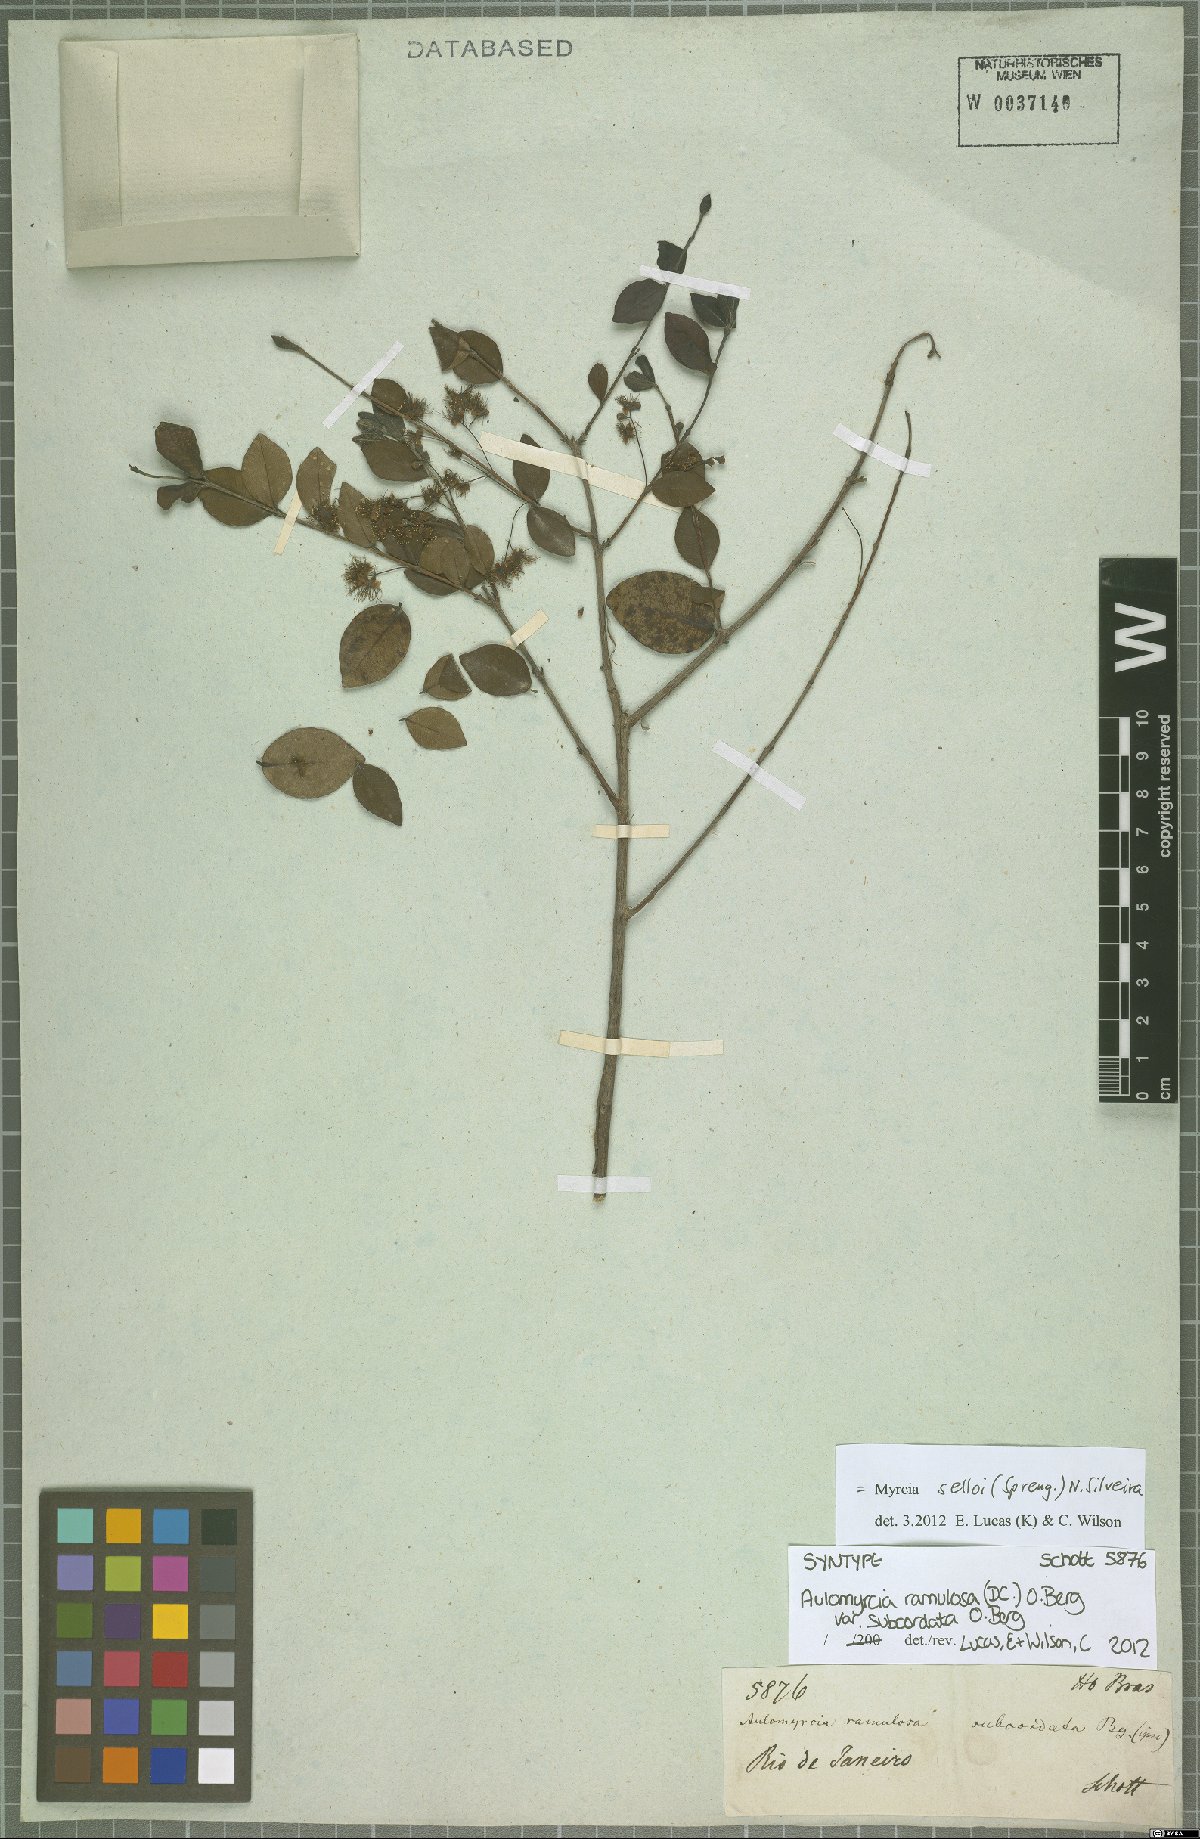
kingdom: Plantae
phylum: Tracheophyta
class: Magnoliopsida
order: Myrtales
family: Myrtaceae
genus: Myrcia
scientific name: Myrcia selloi
